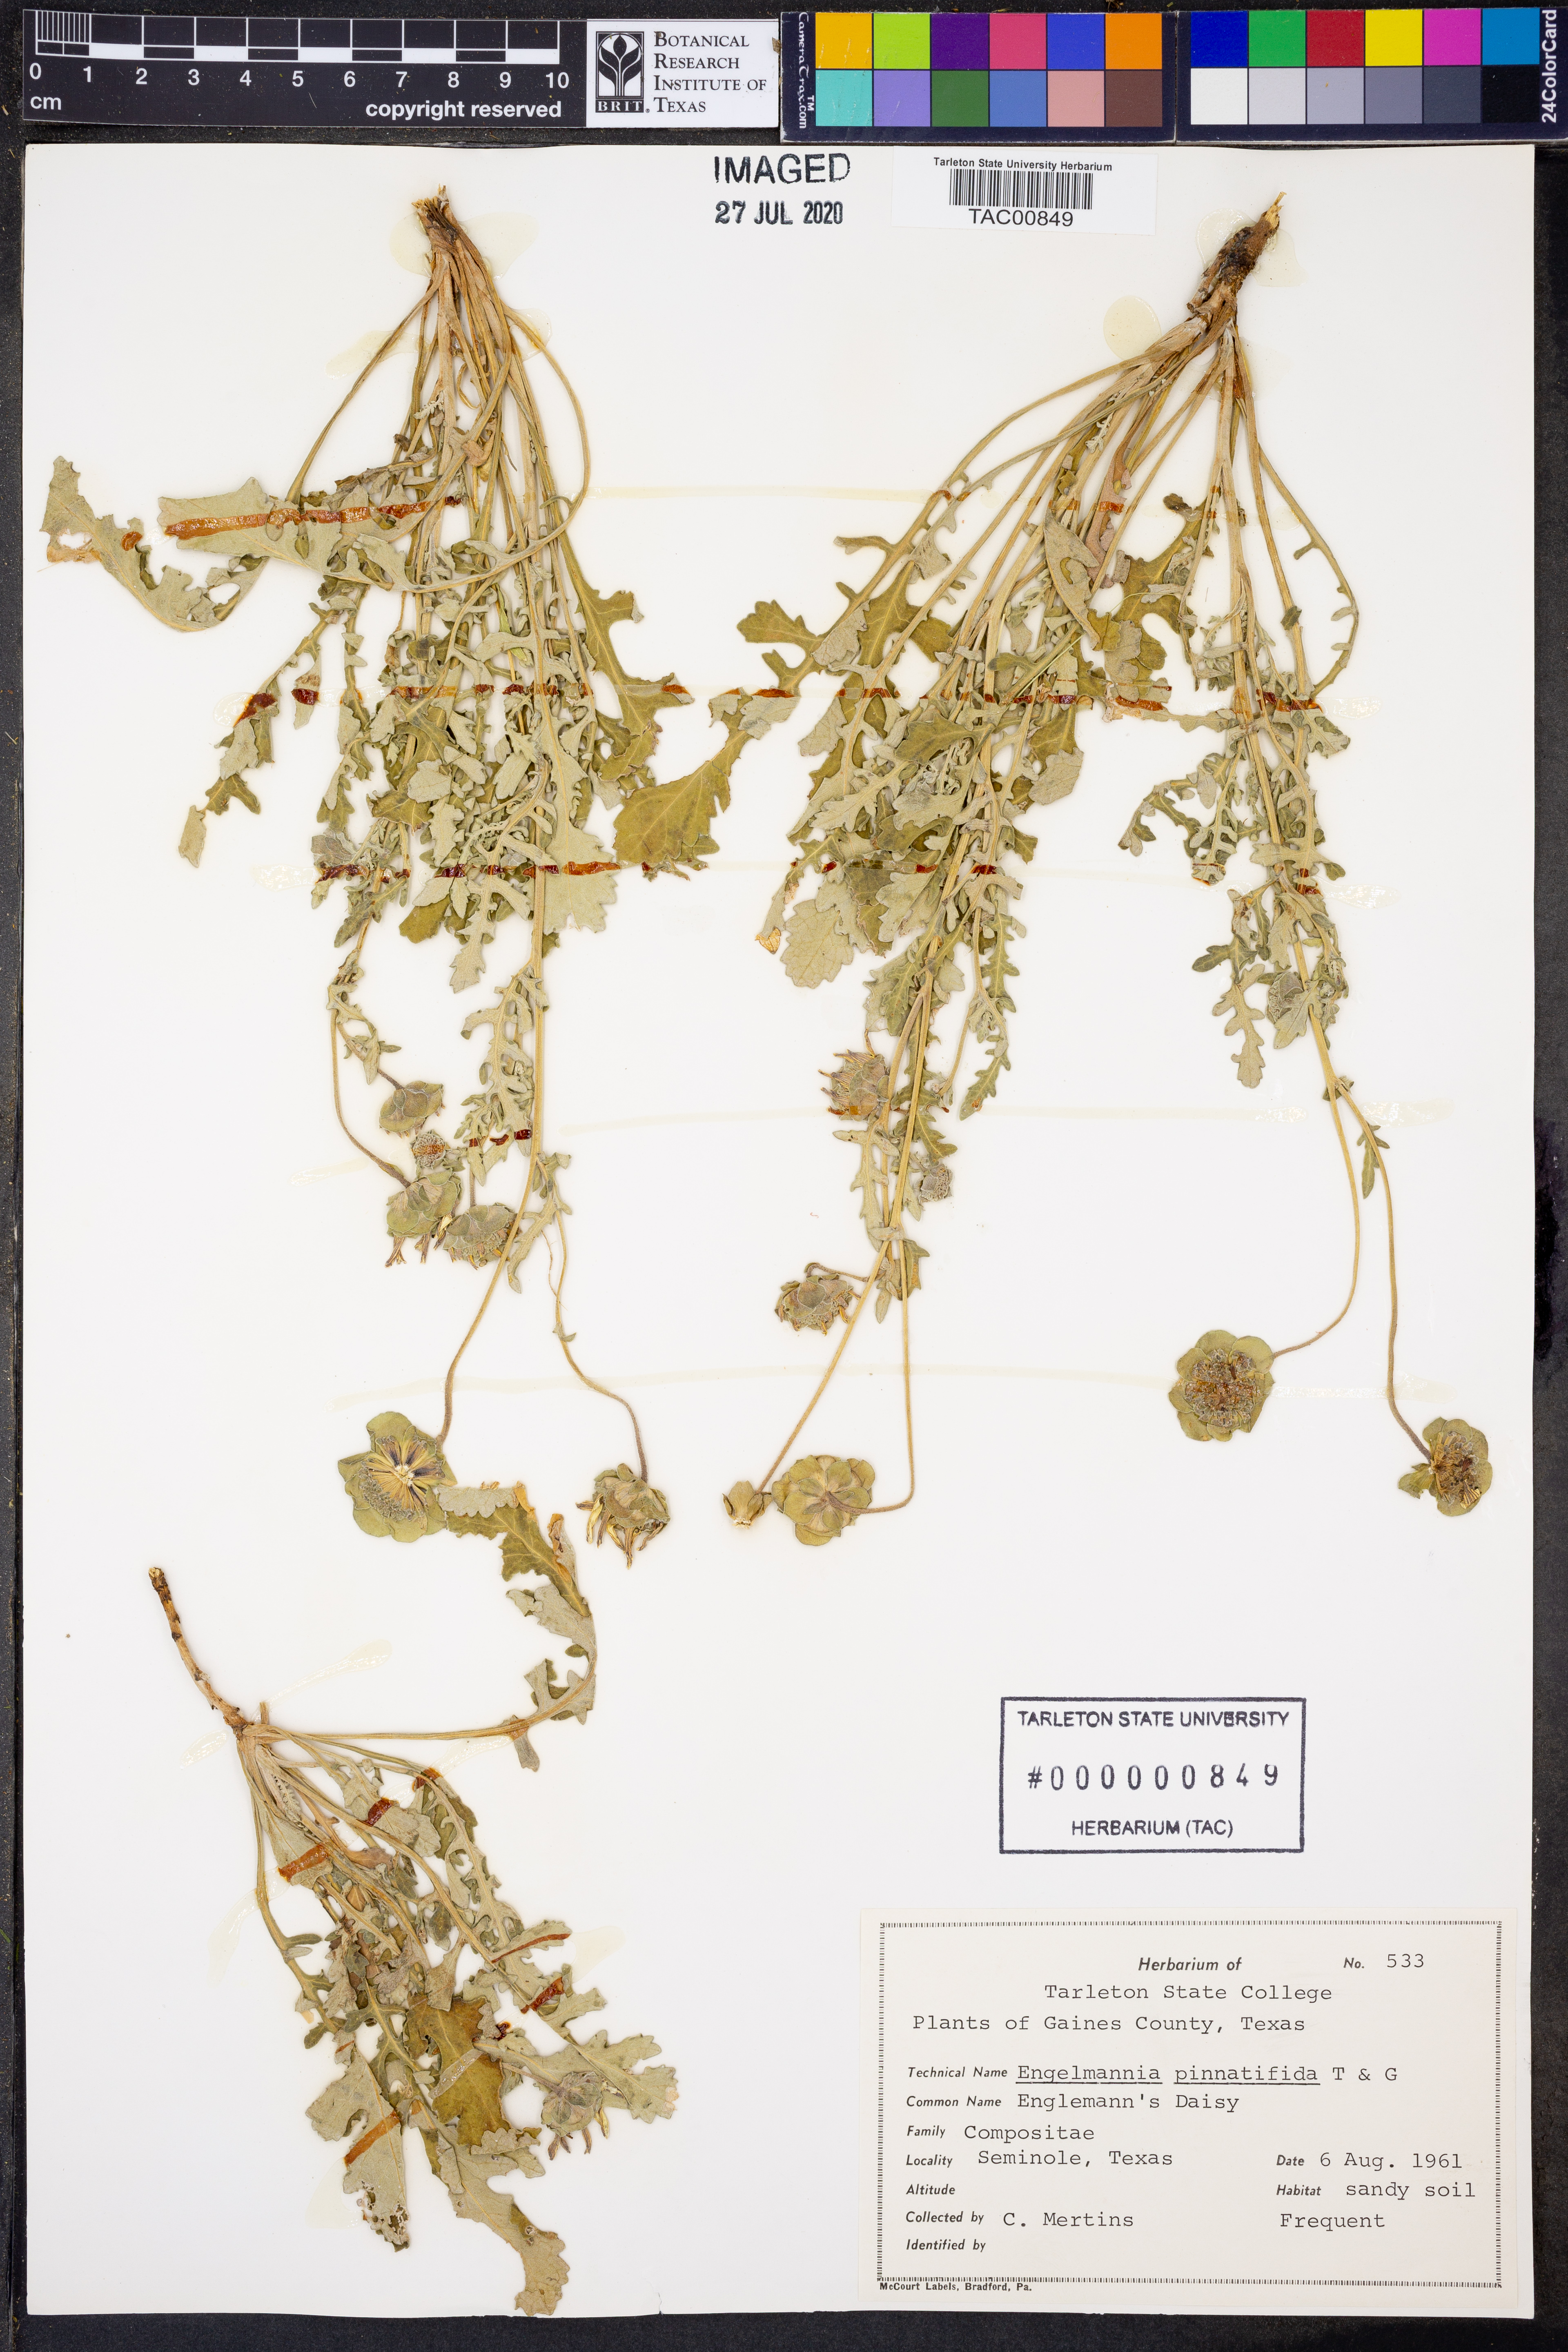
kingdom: Plantae
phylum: Tracheophyta
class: Magnoliopsida
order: Asterales
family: Asteraceae
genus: Engelmannia
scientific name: Engelmannia peristenia
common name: Engelmann's daisy
